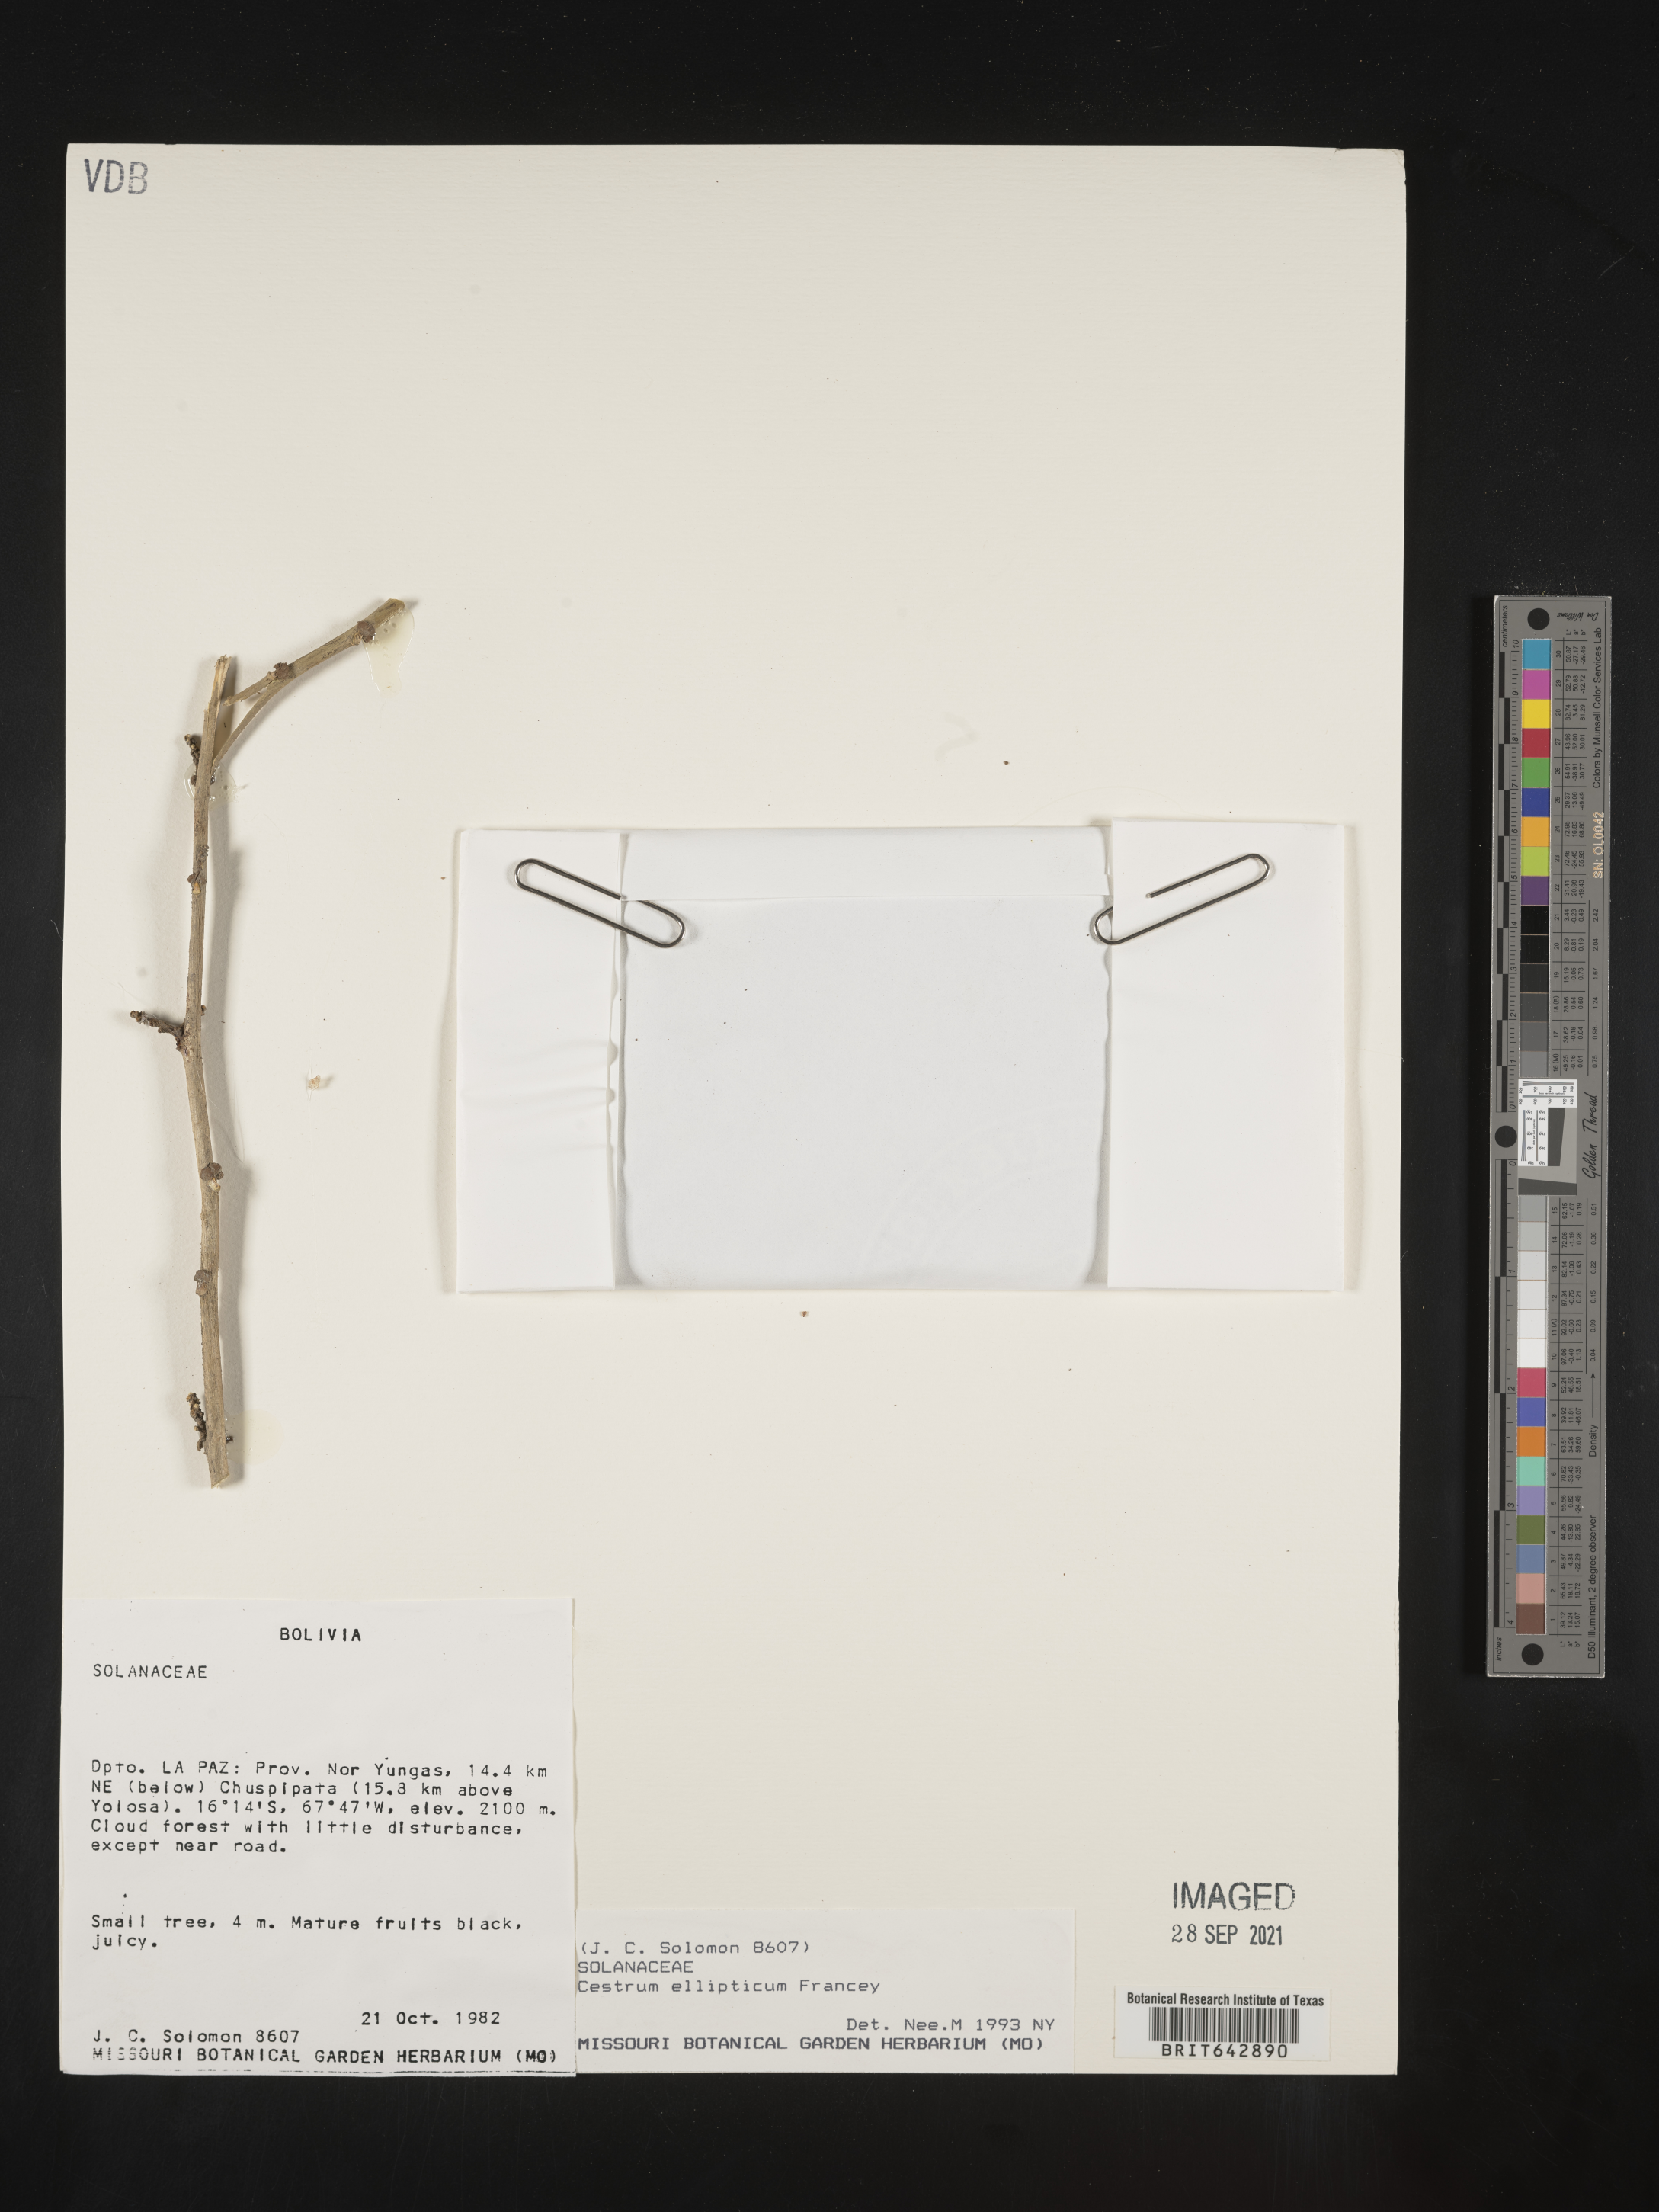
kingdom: Plantae
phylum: Tracheophyta
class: Magnoliopsida
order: Solanales
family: Solanaceae
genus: Cestrum
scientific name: Cestrum
